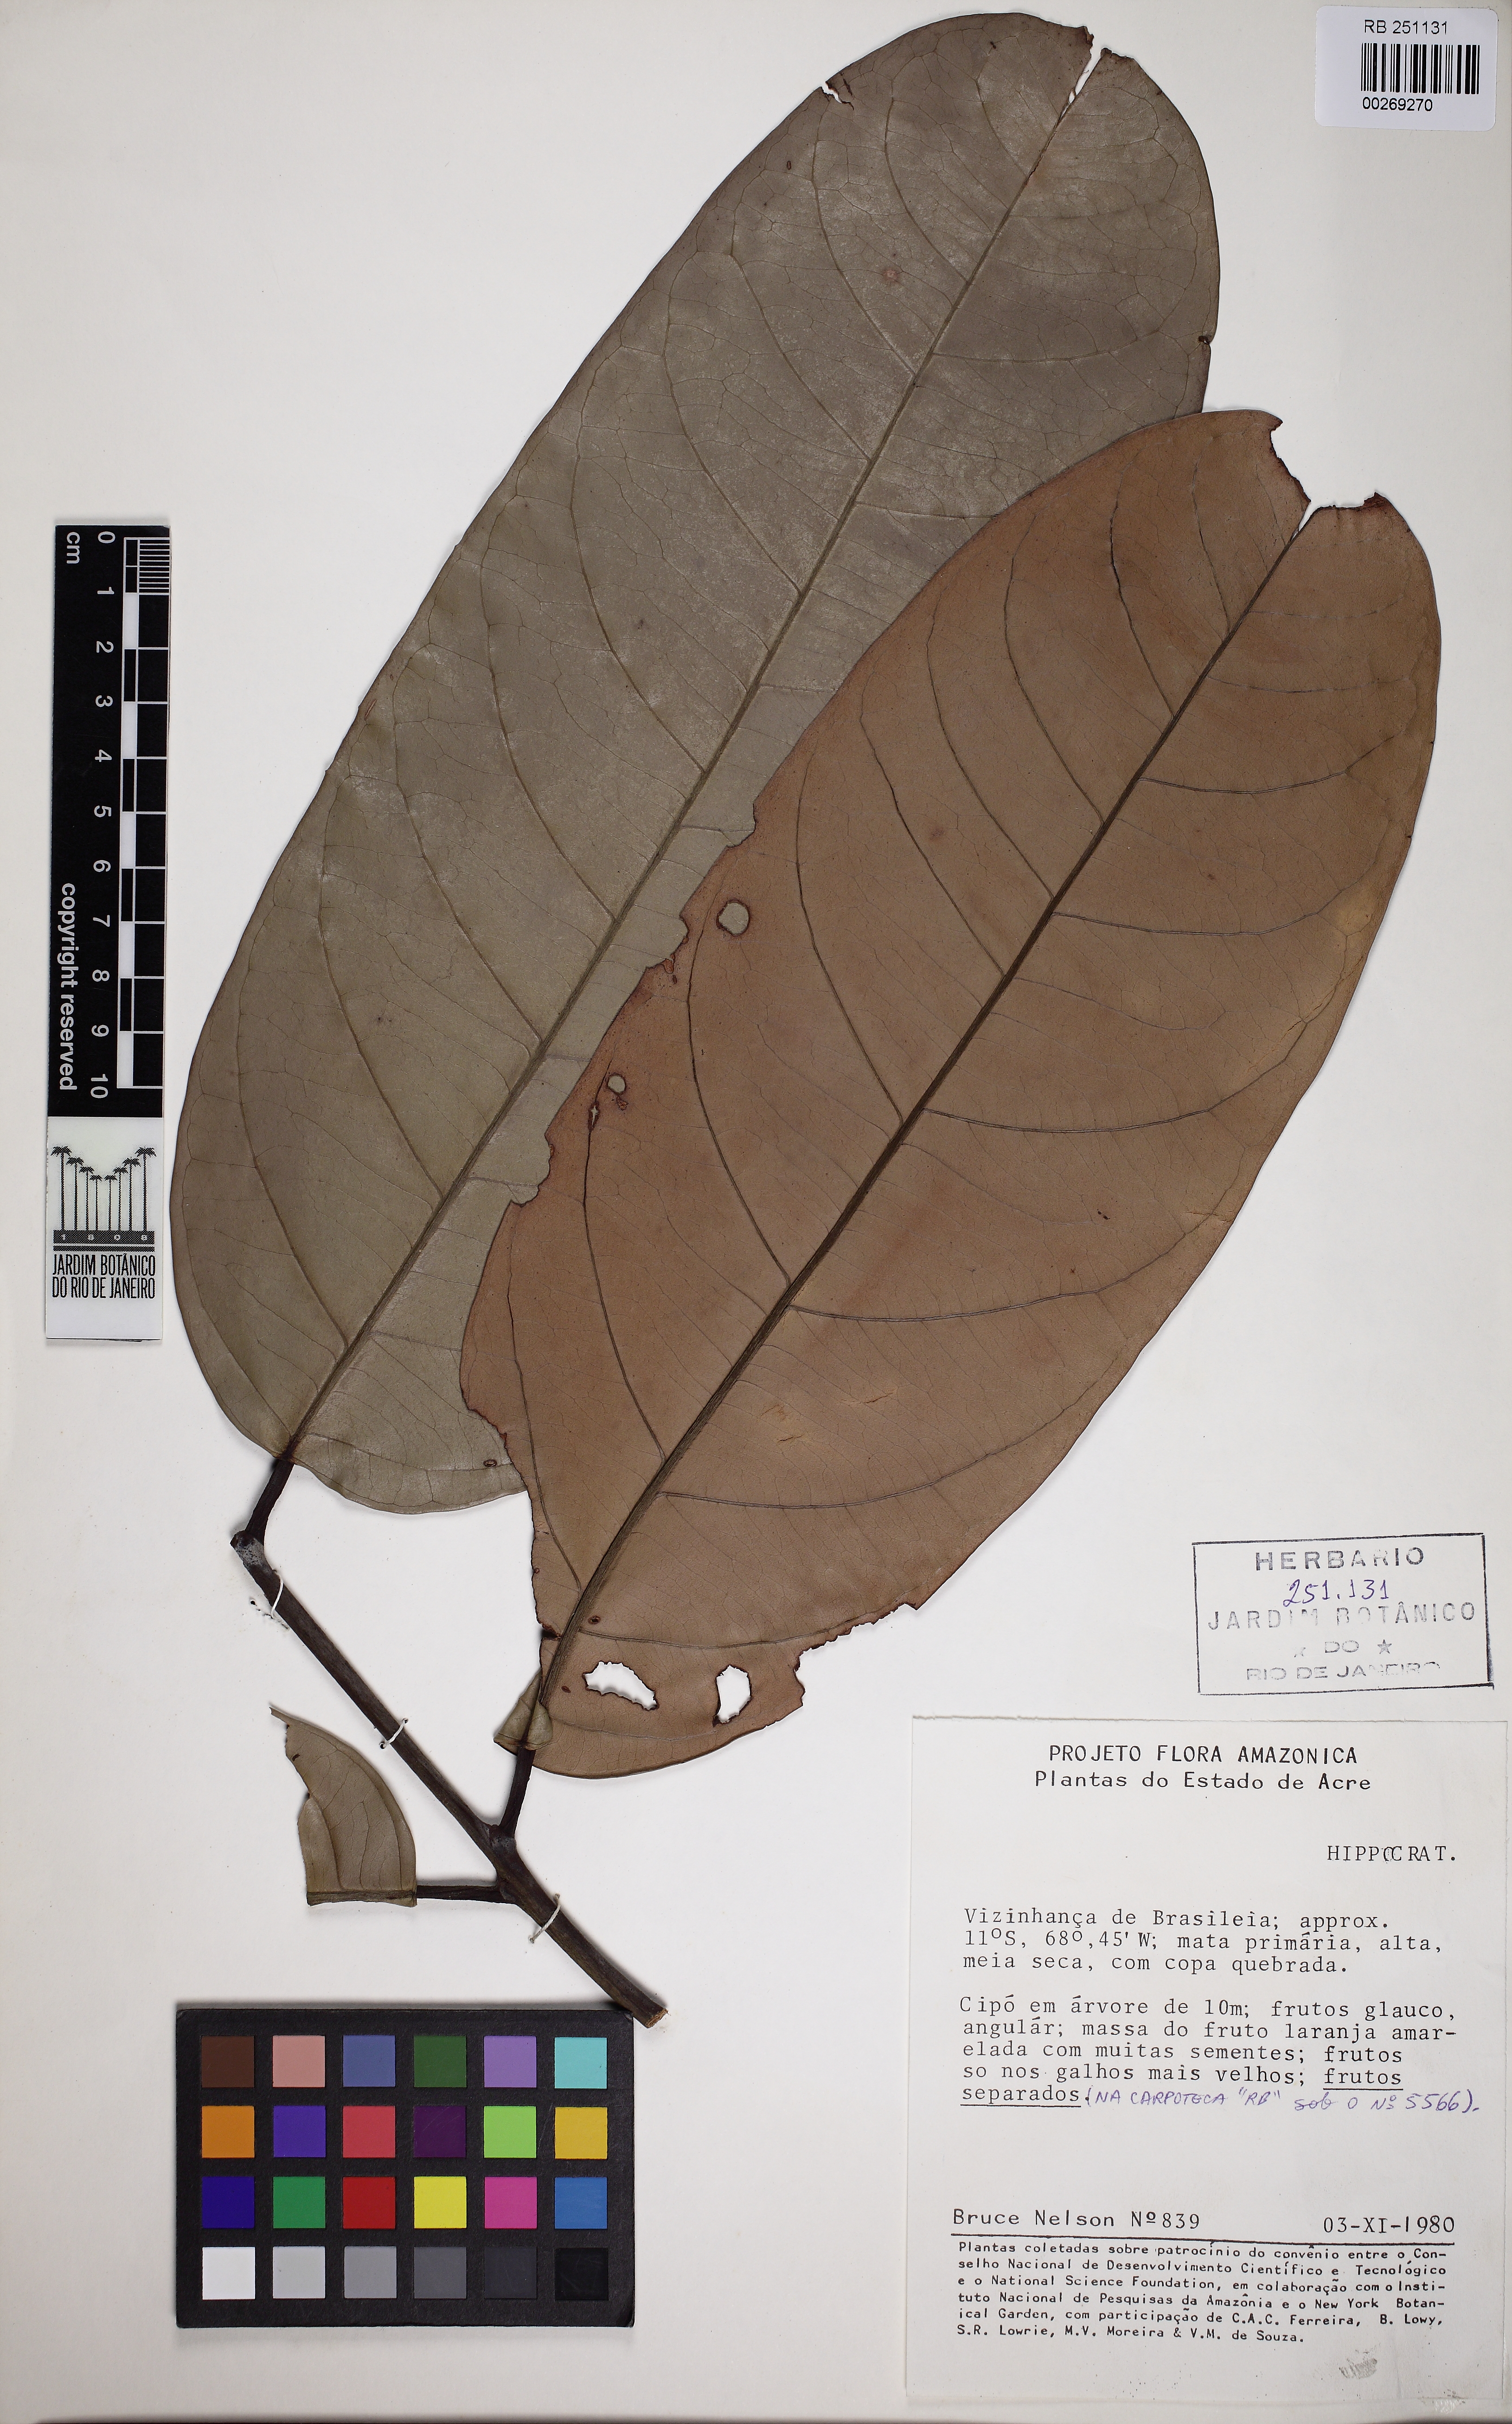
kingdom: Plantae
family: Hippocrateaceae
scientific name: Hippocrateaceae
